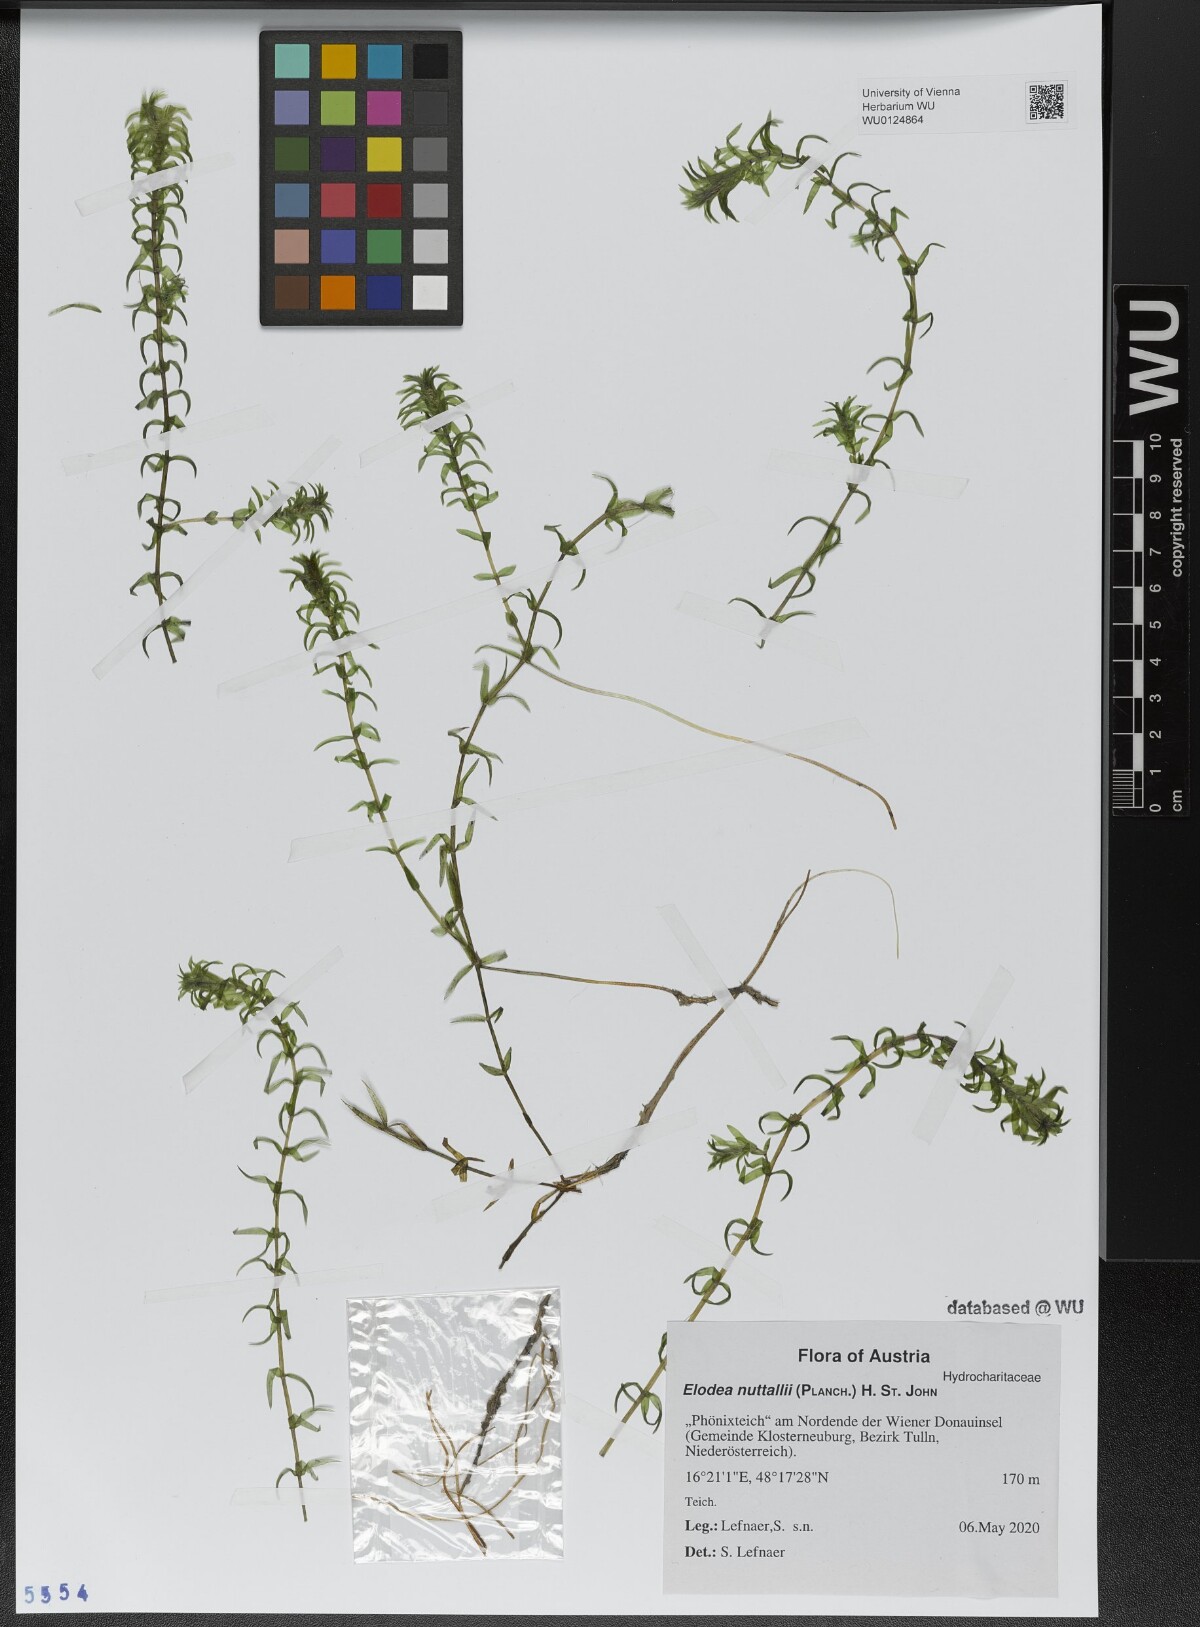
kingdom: Plantae
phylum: Tracheophyta
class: Liliopsida
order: Alismatales
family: Hydrocharitaceae
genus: Elodea
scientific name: Elodea nuttallii
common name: Nuttall's waterweed
